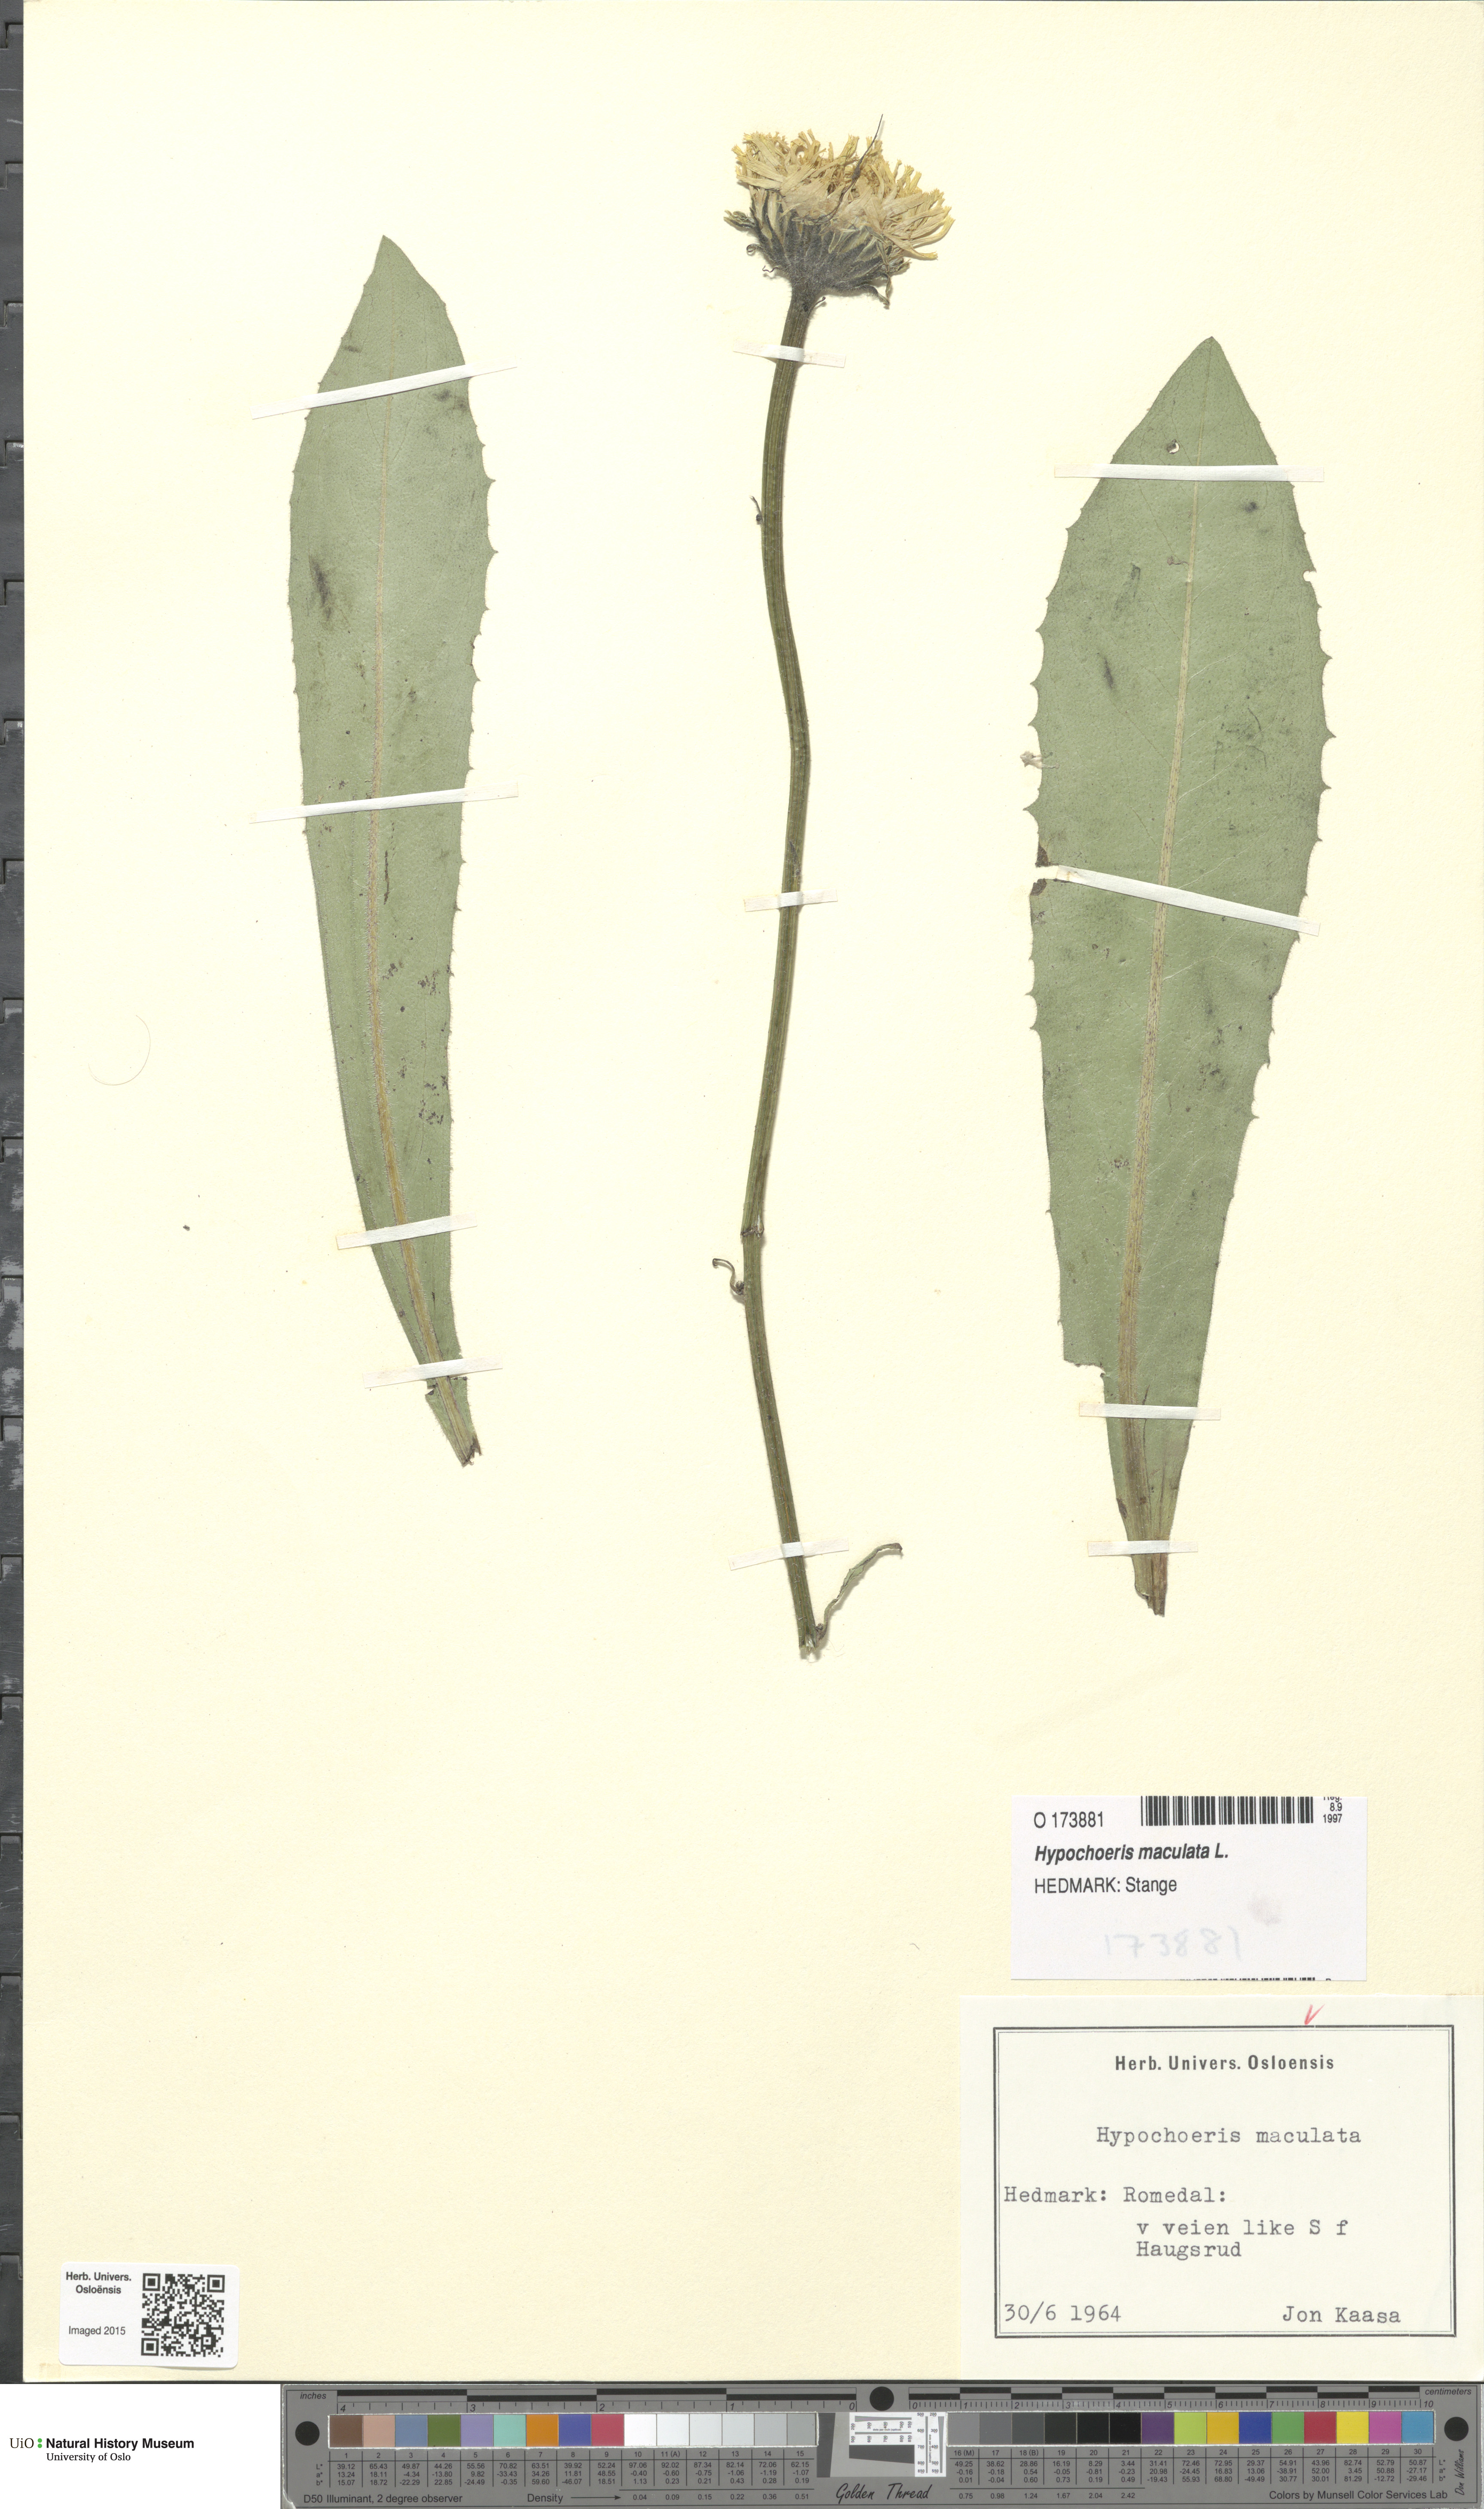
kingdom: Plantae
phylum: Tracheophyta
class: Magnoliopsida
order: Asterales
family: Asteraceae
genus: Trommsdorffia
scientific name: Trommsdorffia maculata
